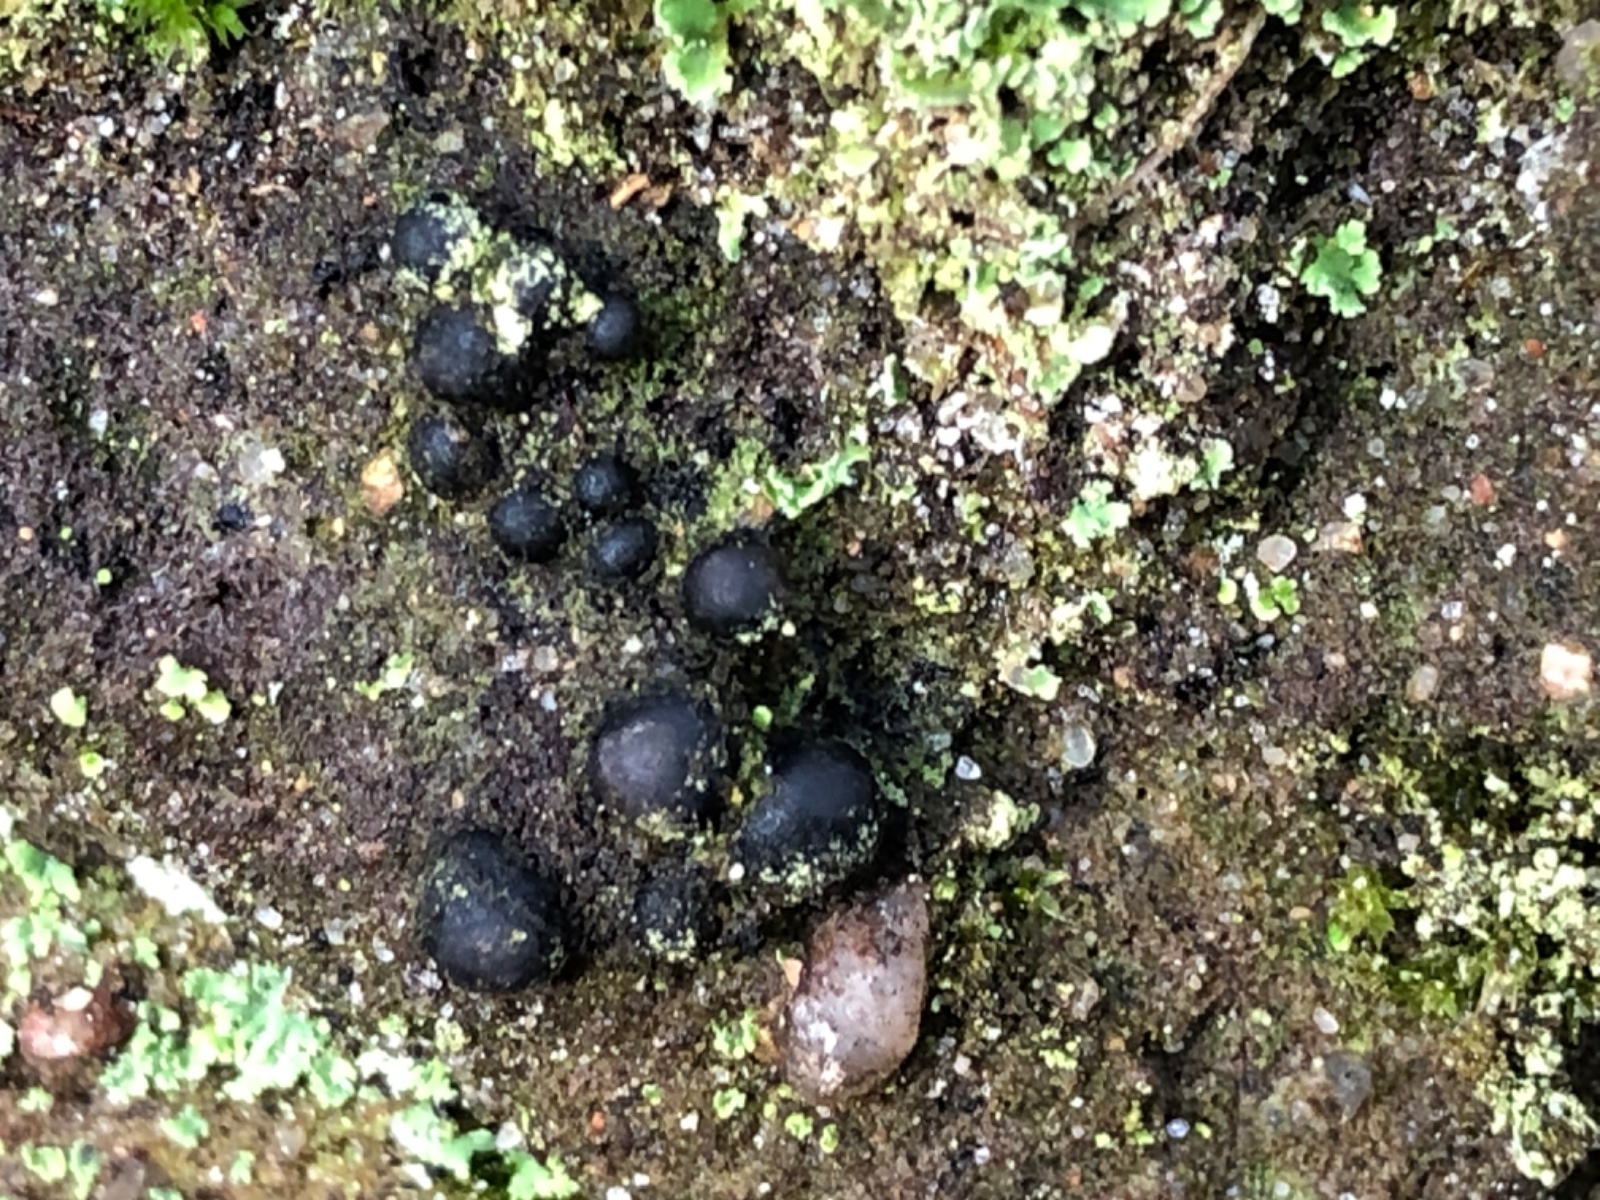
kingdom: Fungi
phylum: Ascomycota
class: Dothideomycetes
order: Mytilinidiales
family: Gloniaceae
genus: Cenococcum
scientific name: Cenococcum geophilum
